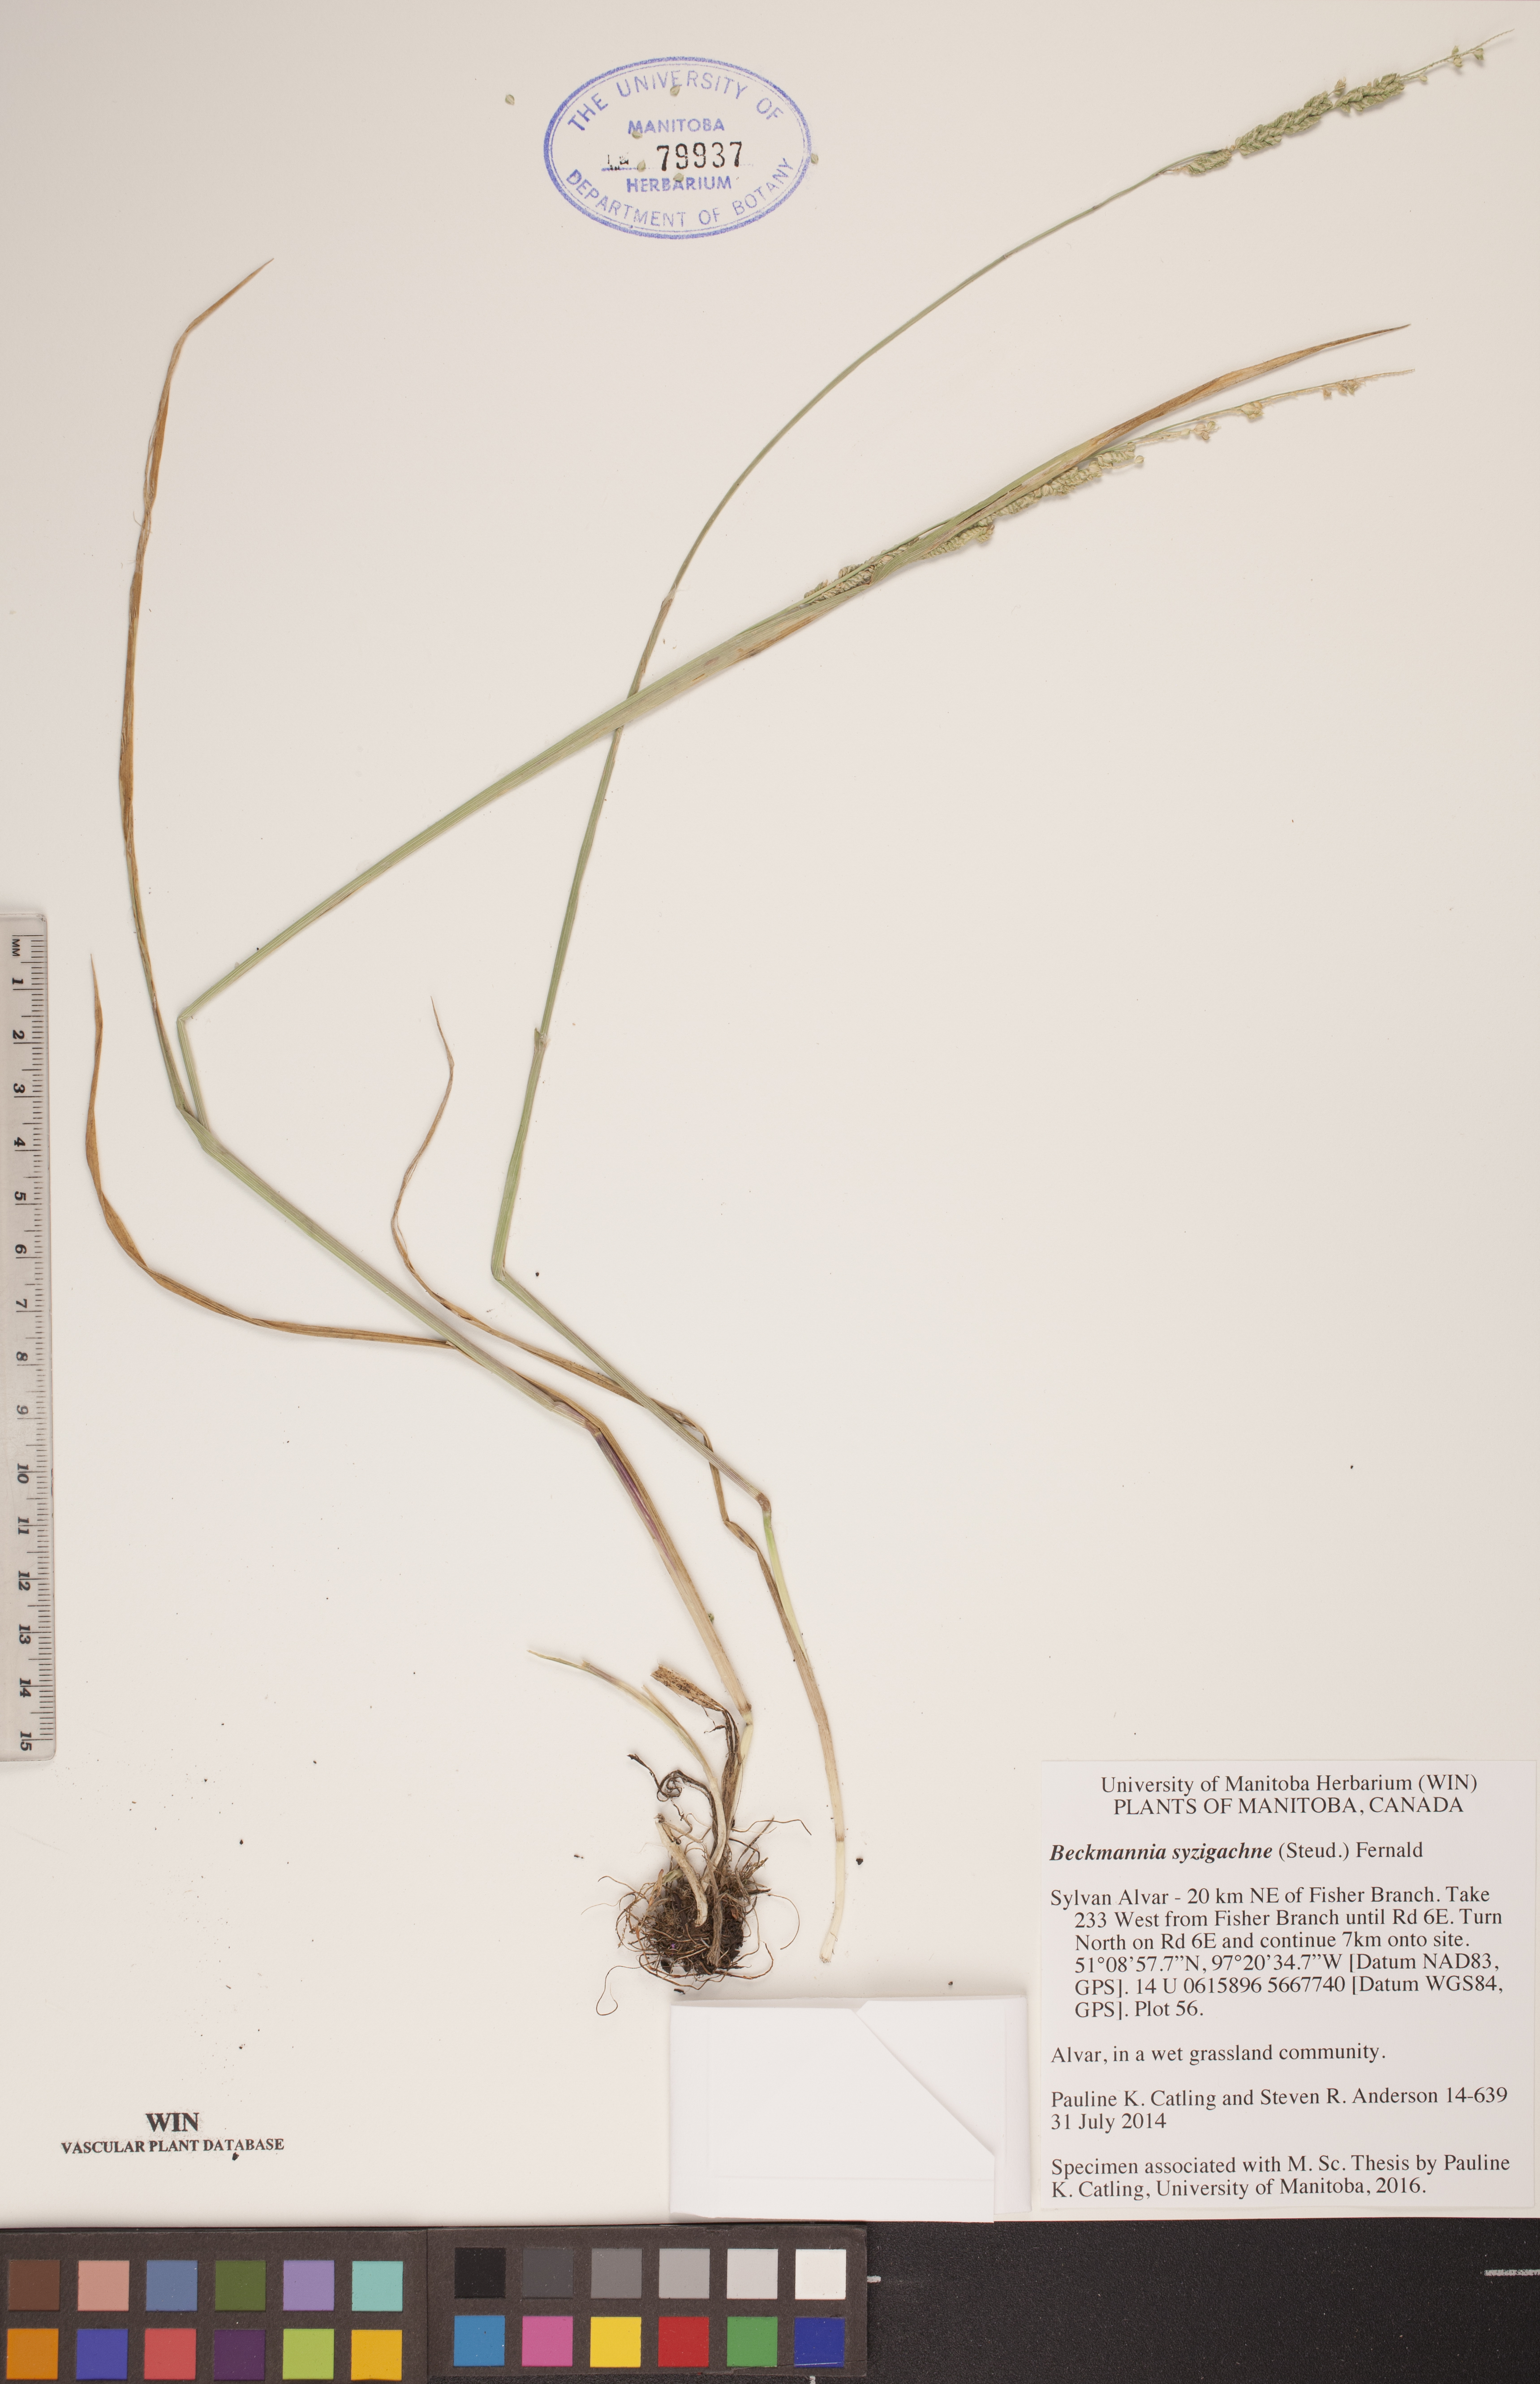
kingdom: Plantae
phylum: Tracheophyta
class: Liliopsida
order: Poales
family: Poaceae
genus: Beckmannia
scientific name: Beckmannia syzigachne
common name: American slough-grass
